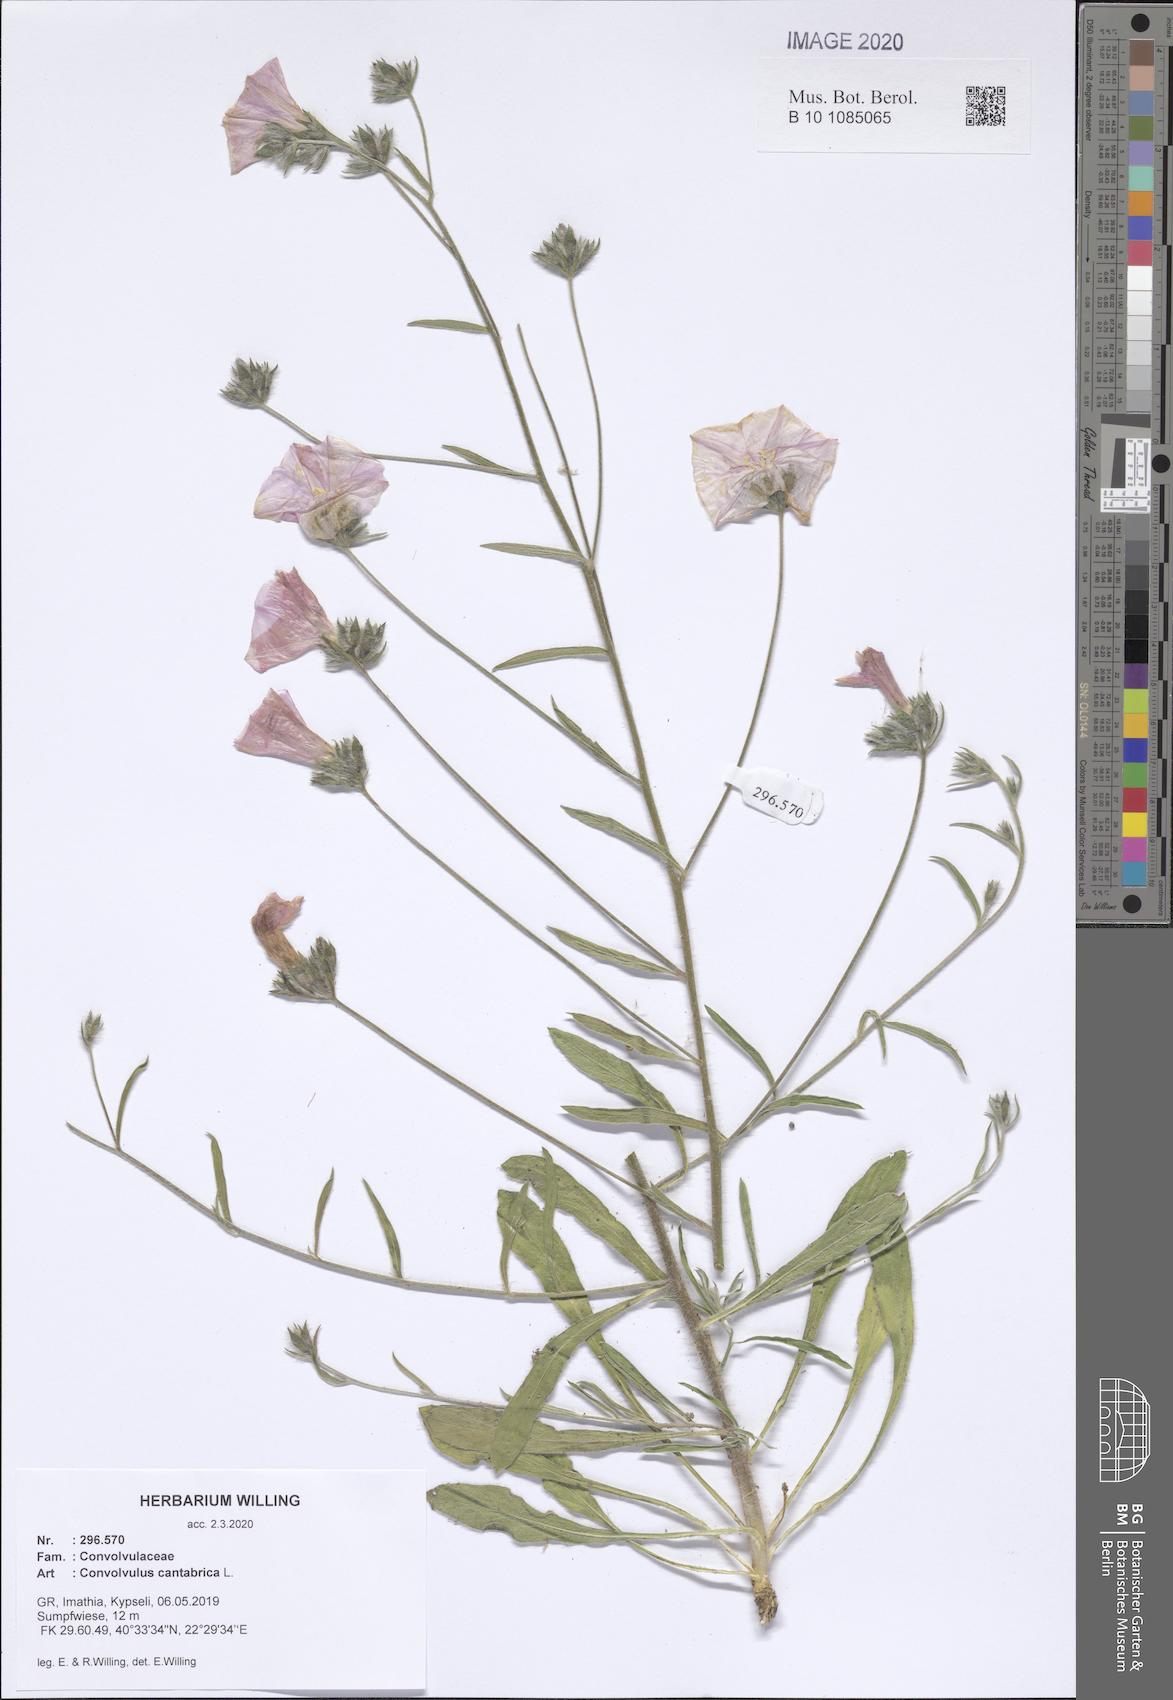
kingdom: Plantae
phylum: Tracheophyta
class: Magnoliopsida
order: Solanales
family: Convolvulaceae
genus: Convolvulus
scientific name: Convolvulus cantabrica
